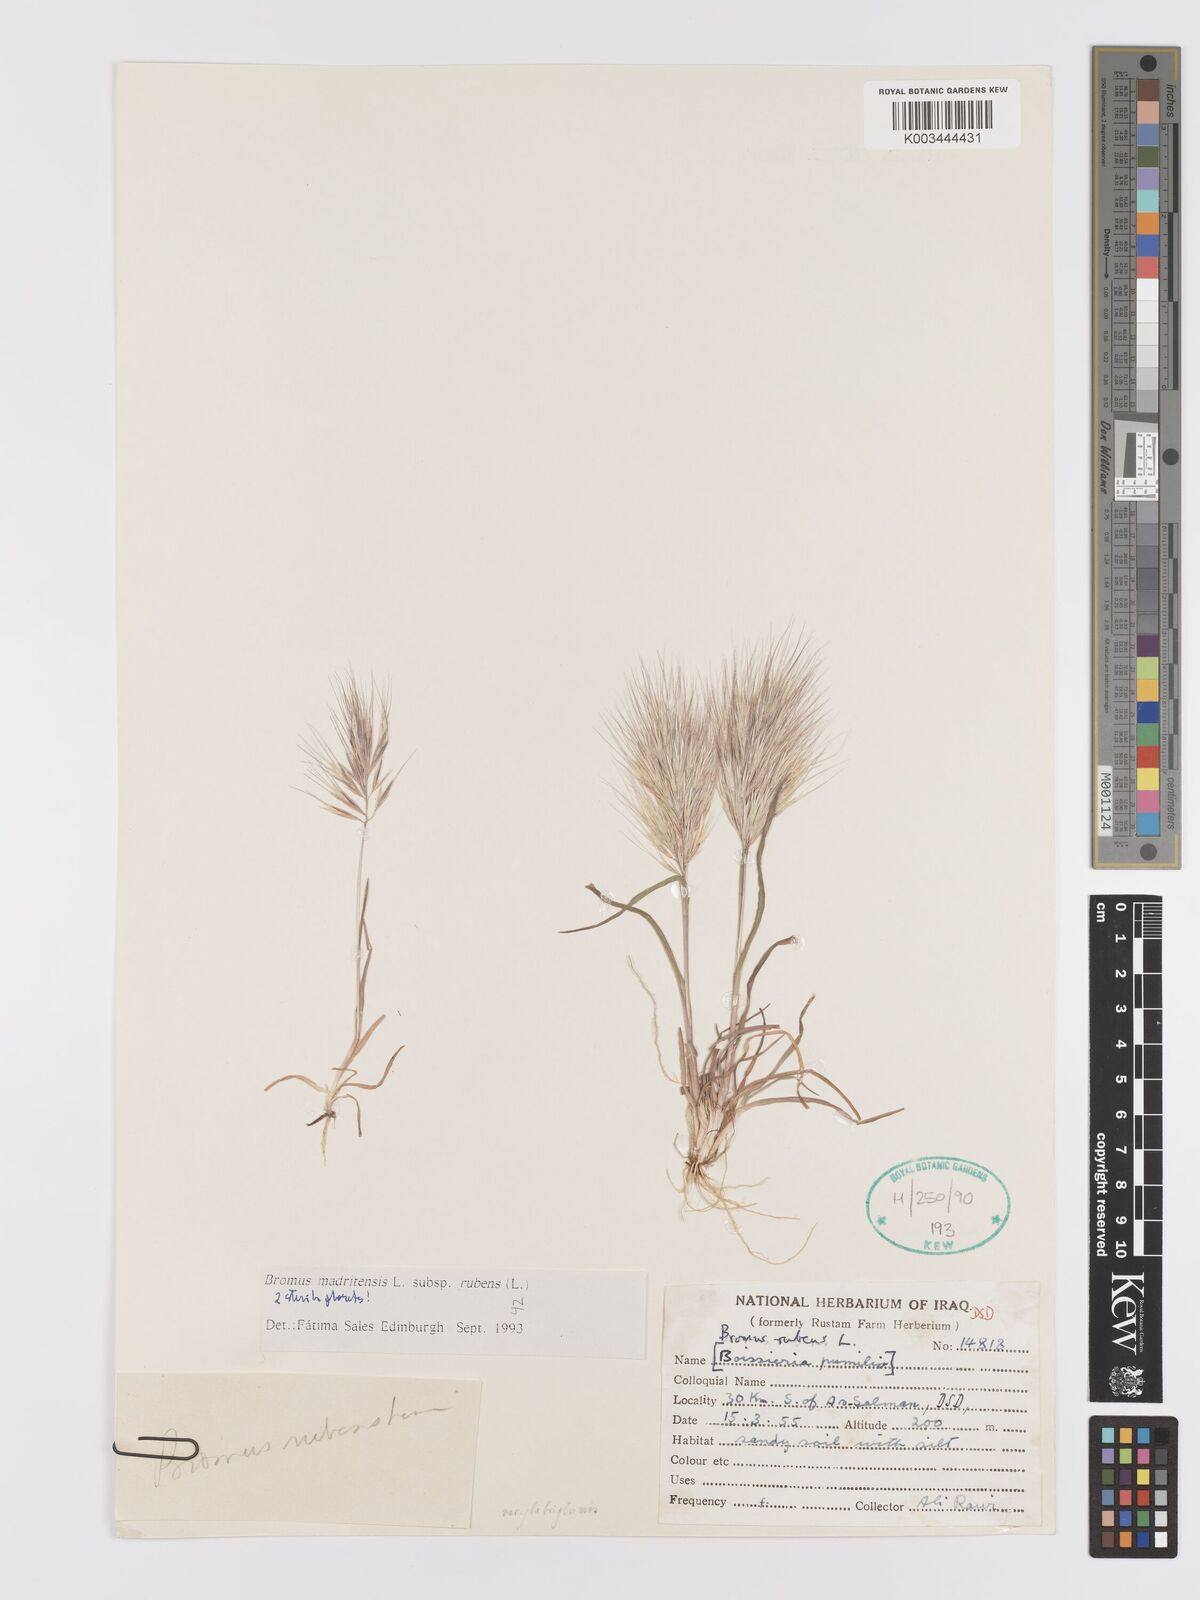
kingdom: Plantae
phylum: Tracheophyta
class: Liliopsida
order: Poales
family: Poaceae
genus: Bromus
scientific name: Bromus rubens
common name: Red brome
